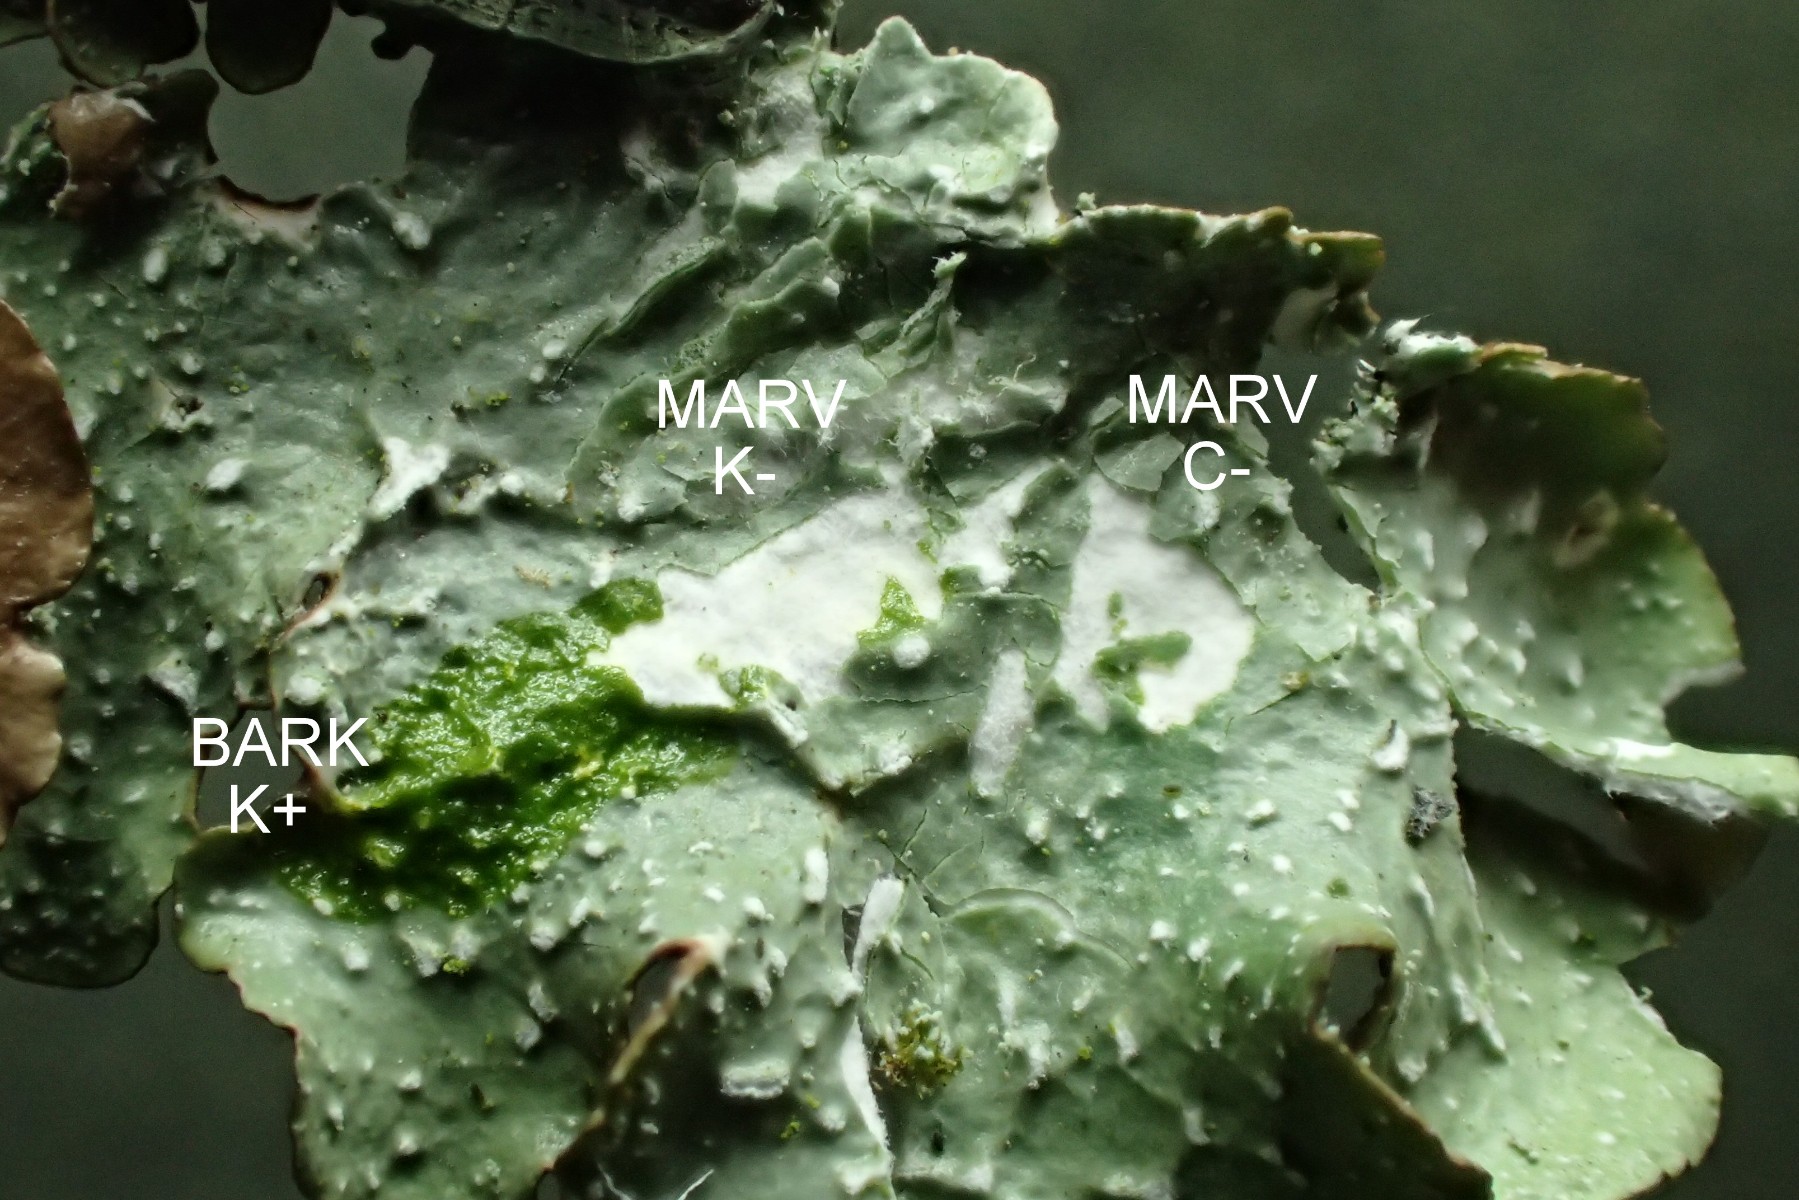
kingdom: Fungi
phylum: Ascomycota
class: Lecanoromycetes
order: Lecanorales
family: Parmeliaceae
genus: Punctelia
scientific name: Punctelia reddenda
